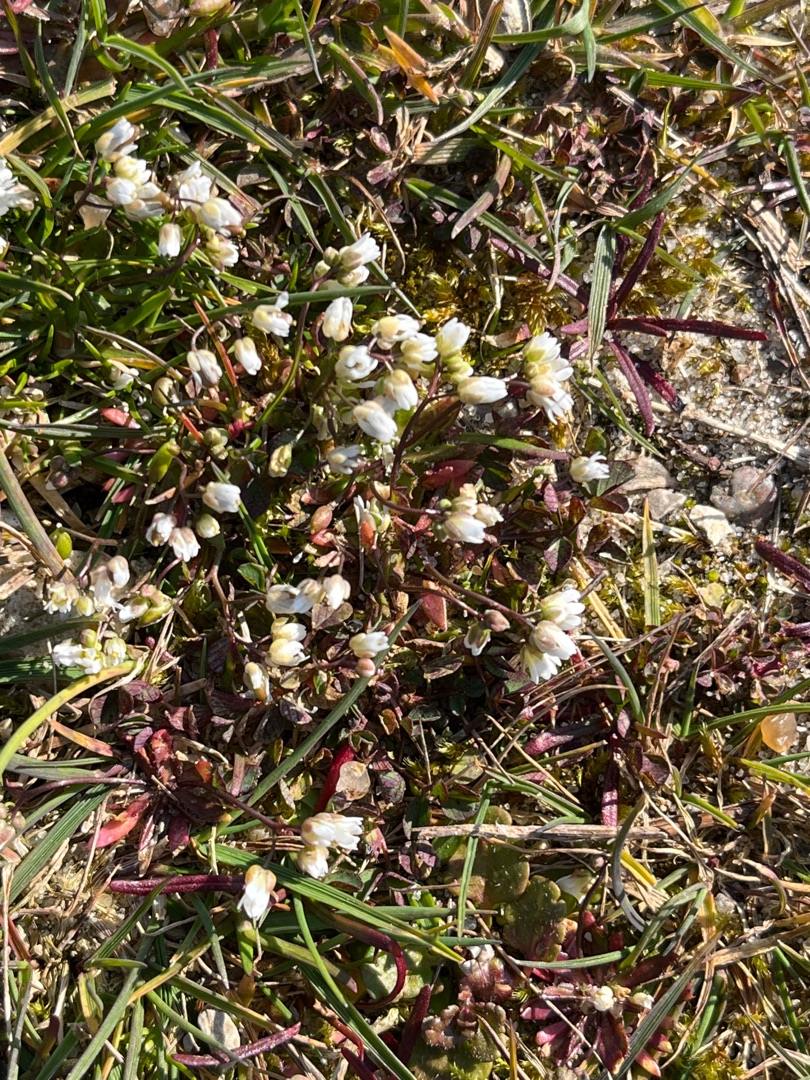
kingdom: Plantae
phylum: Tracheophyta
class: Magnoliopsida
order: Brassicales
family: Brassicaceae
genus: Draba
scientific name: Draba verna
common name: Vår-gæslingeblomst
